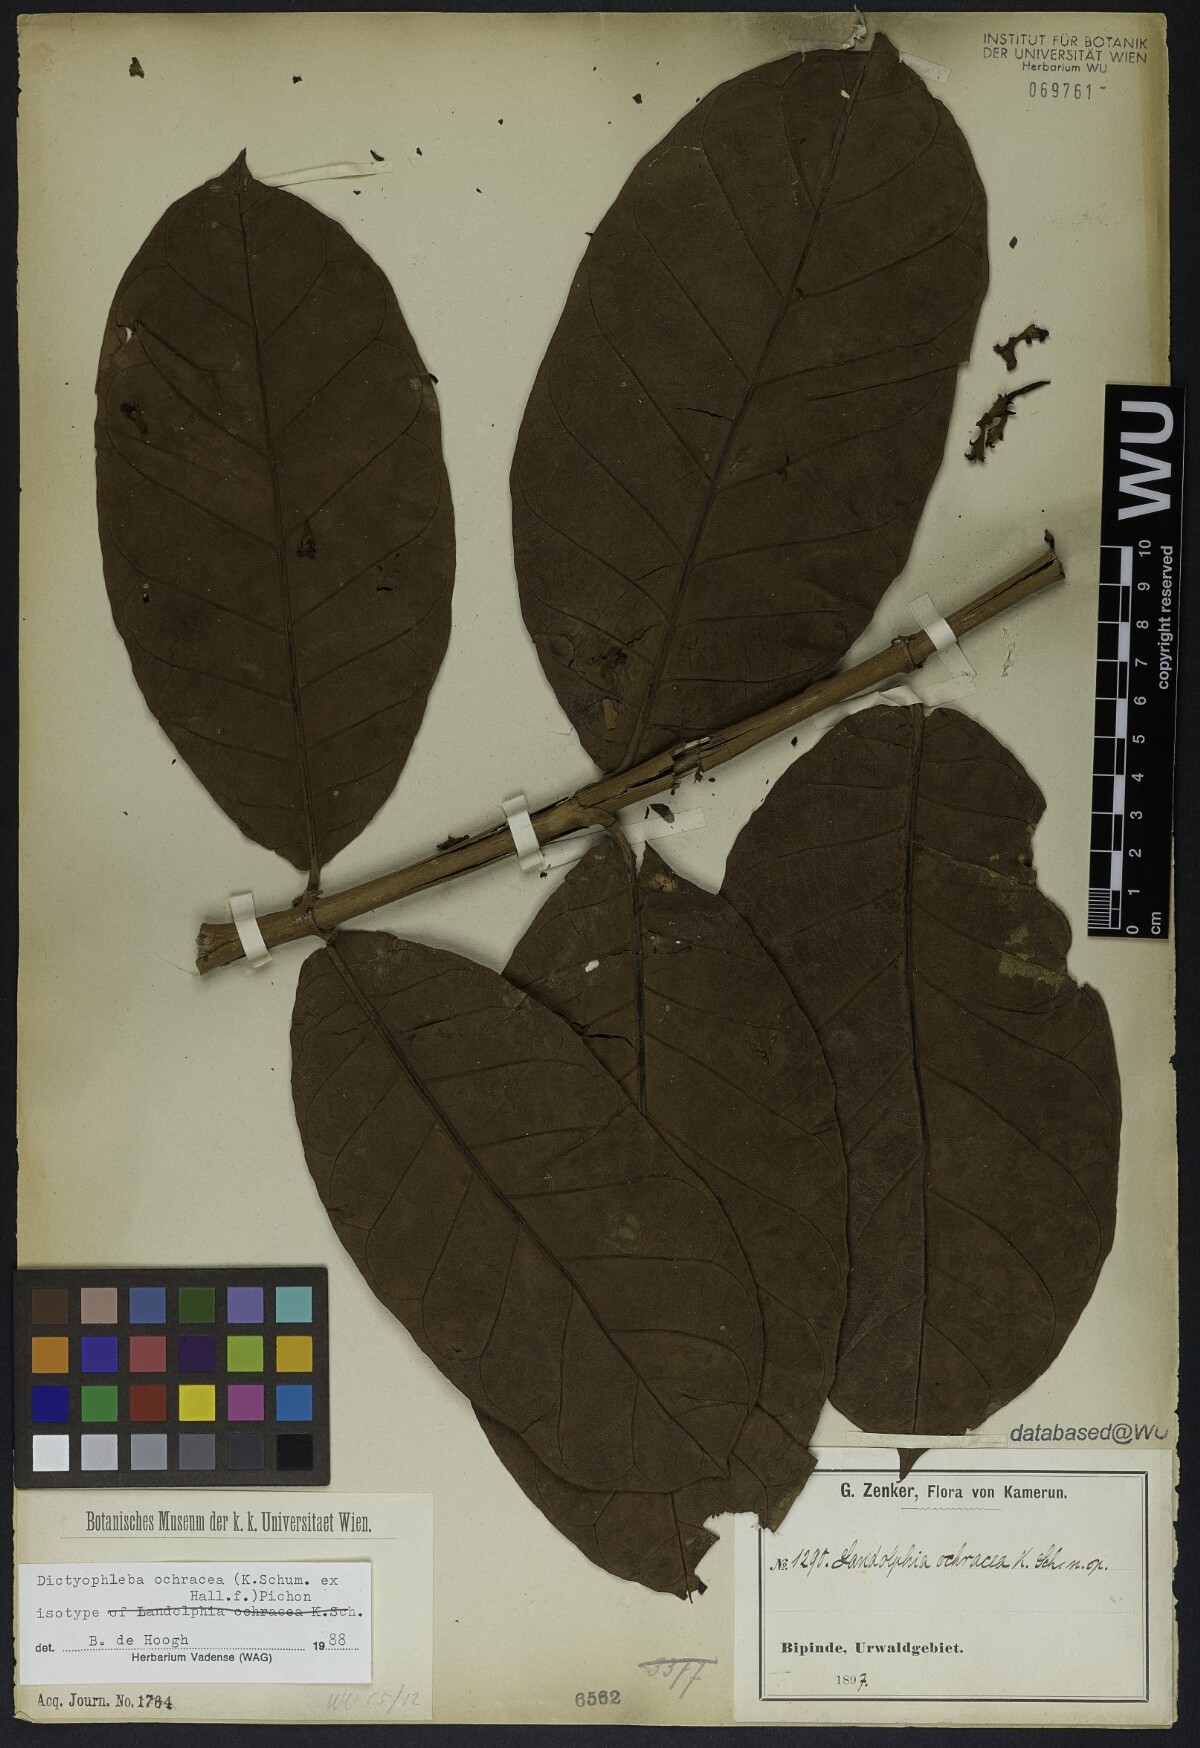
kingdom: Plantae
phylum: Tracheophyta
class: Magnoliopsida
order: Gentianales
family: Apocynaceae
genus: Dictyophleba
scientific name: Dictyophleba ochracea
